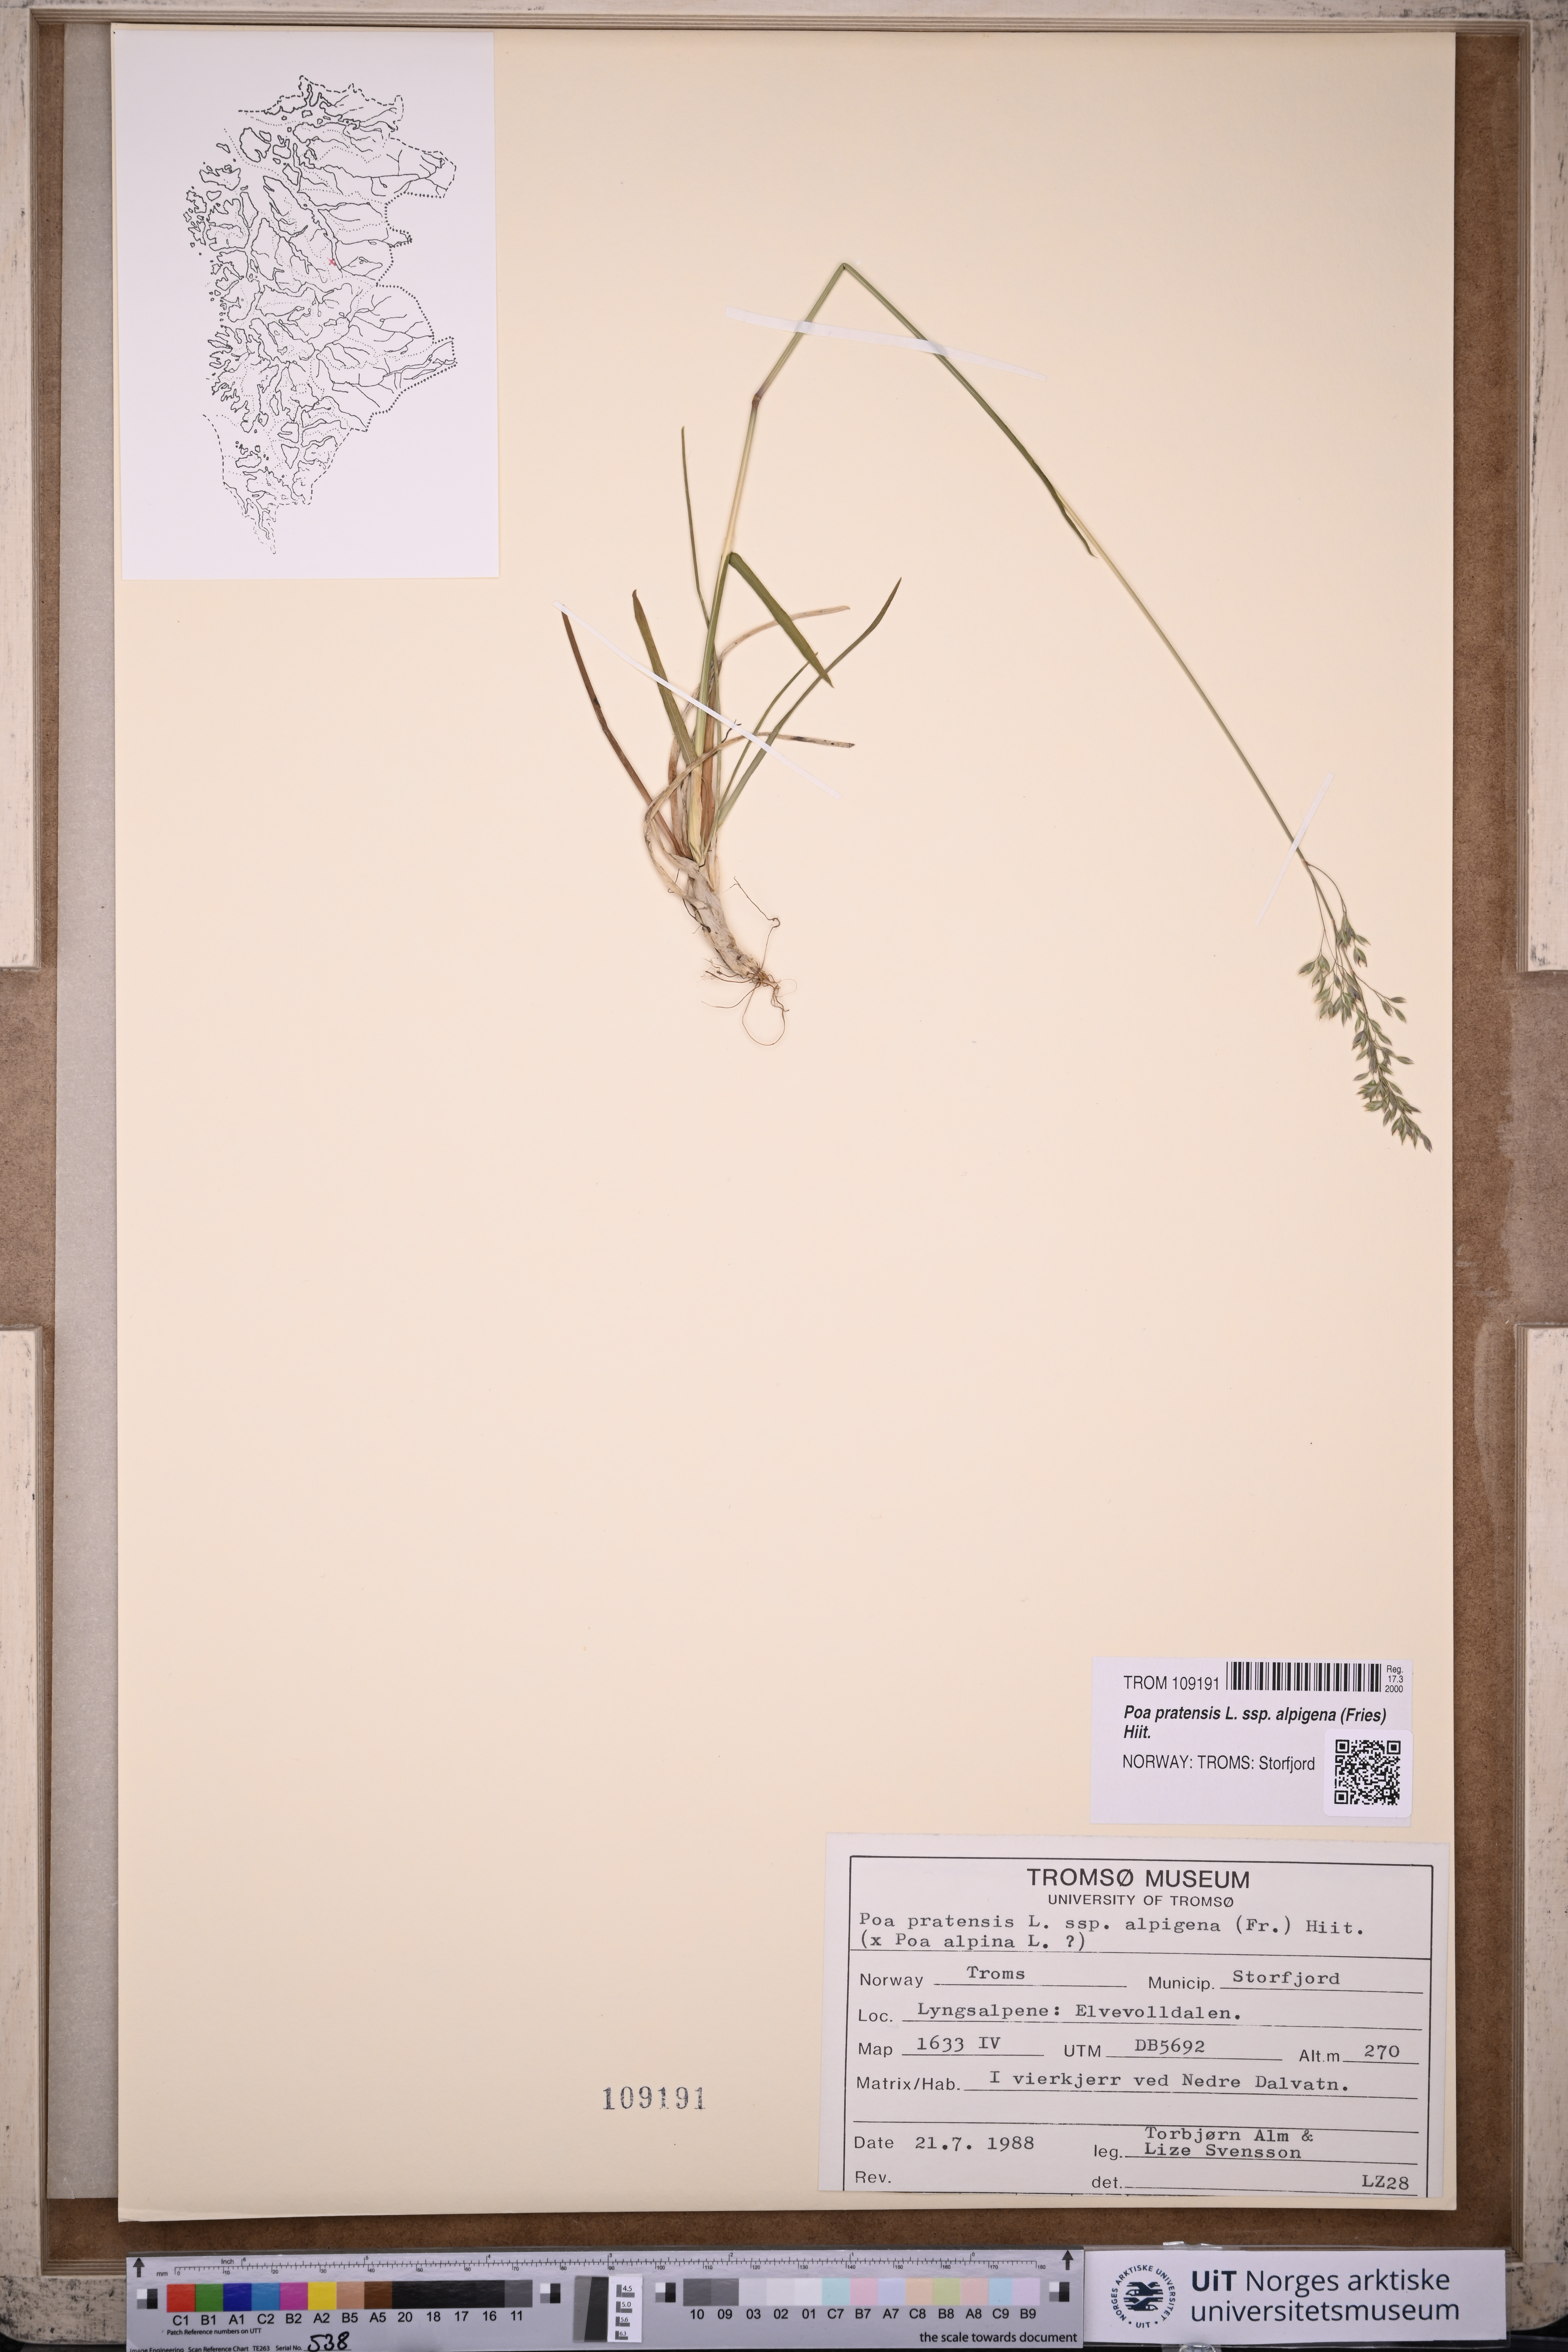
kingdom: Plantae
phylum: Tracheophyta
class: Liliopsida
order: Poales
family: Poaceae
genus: Poa
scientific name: Poa alpigena
